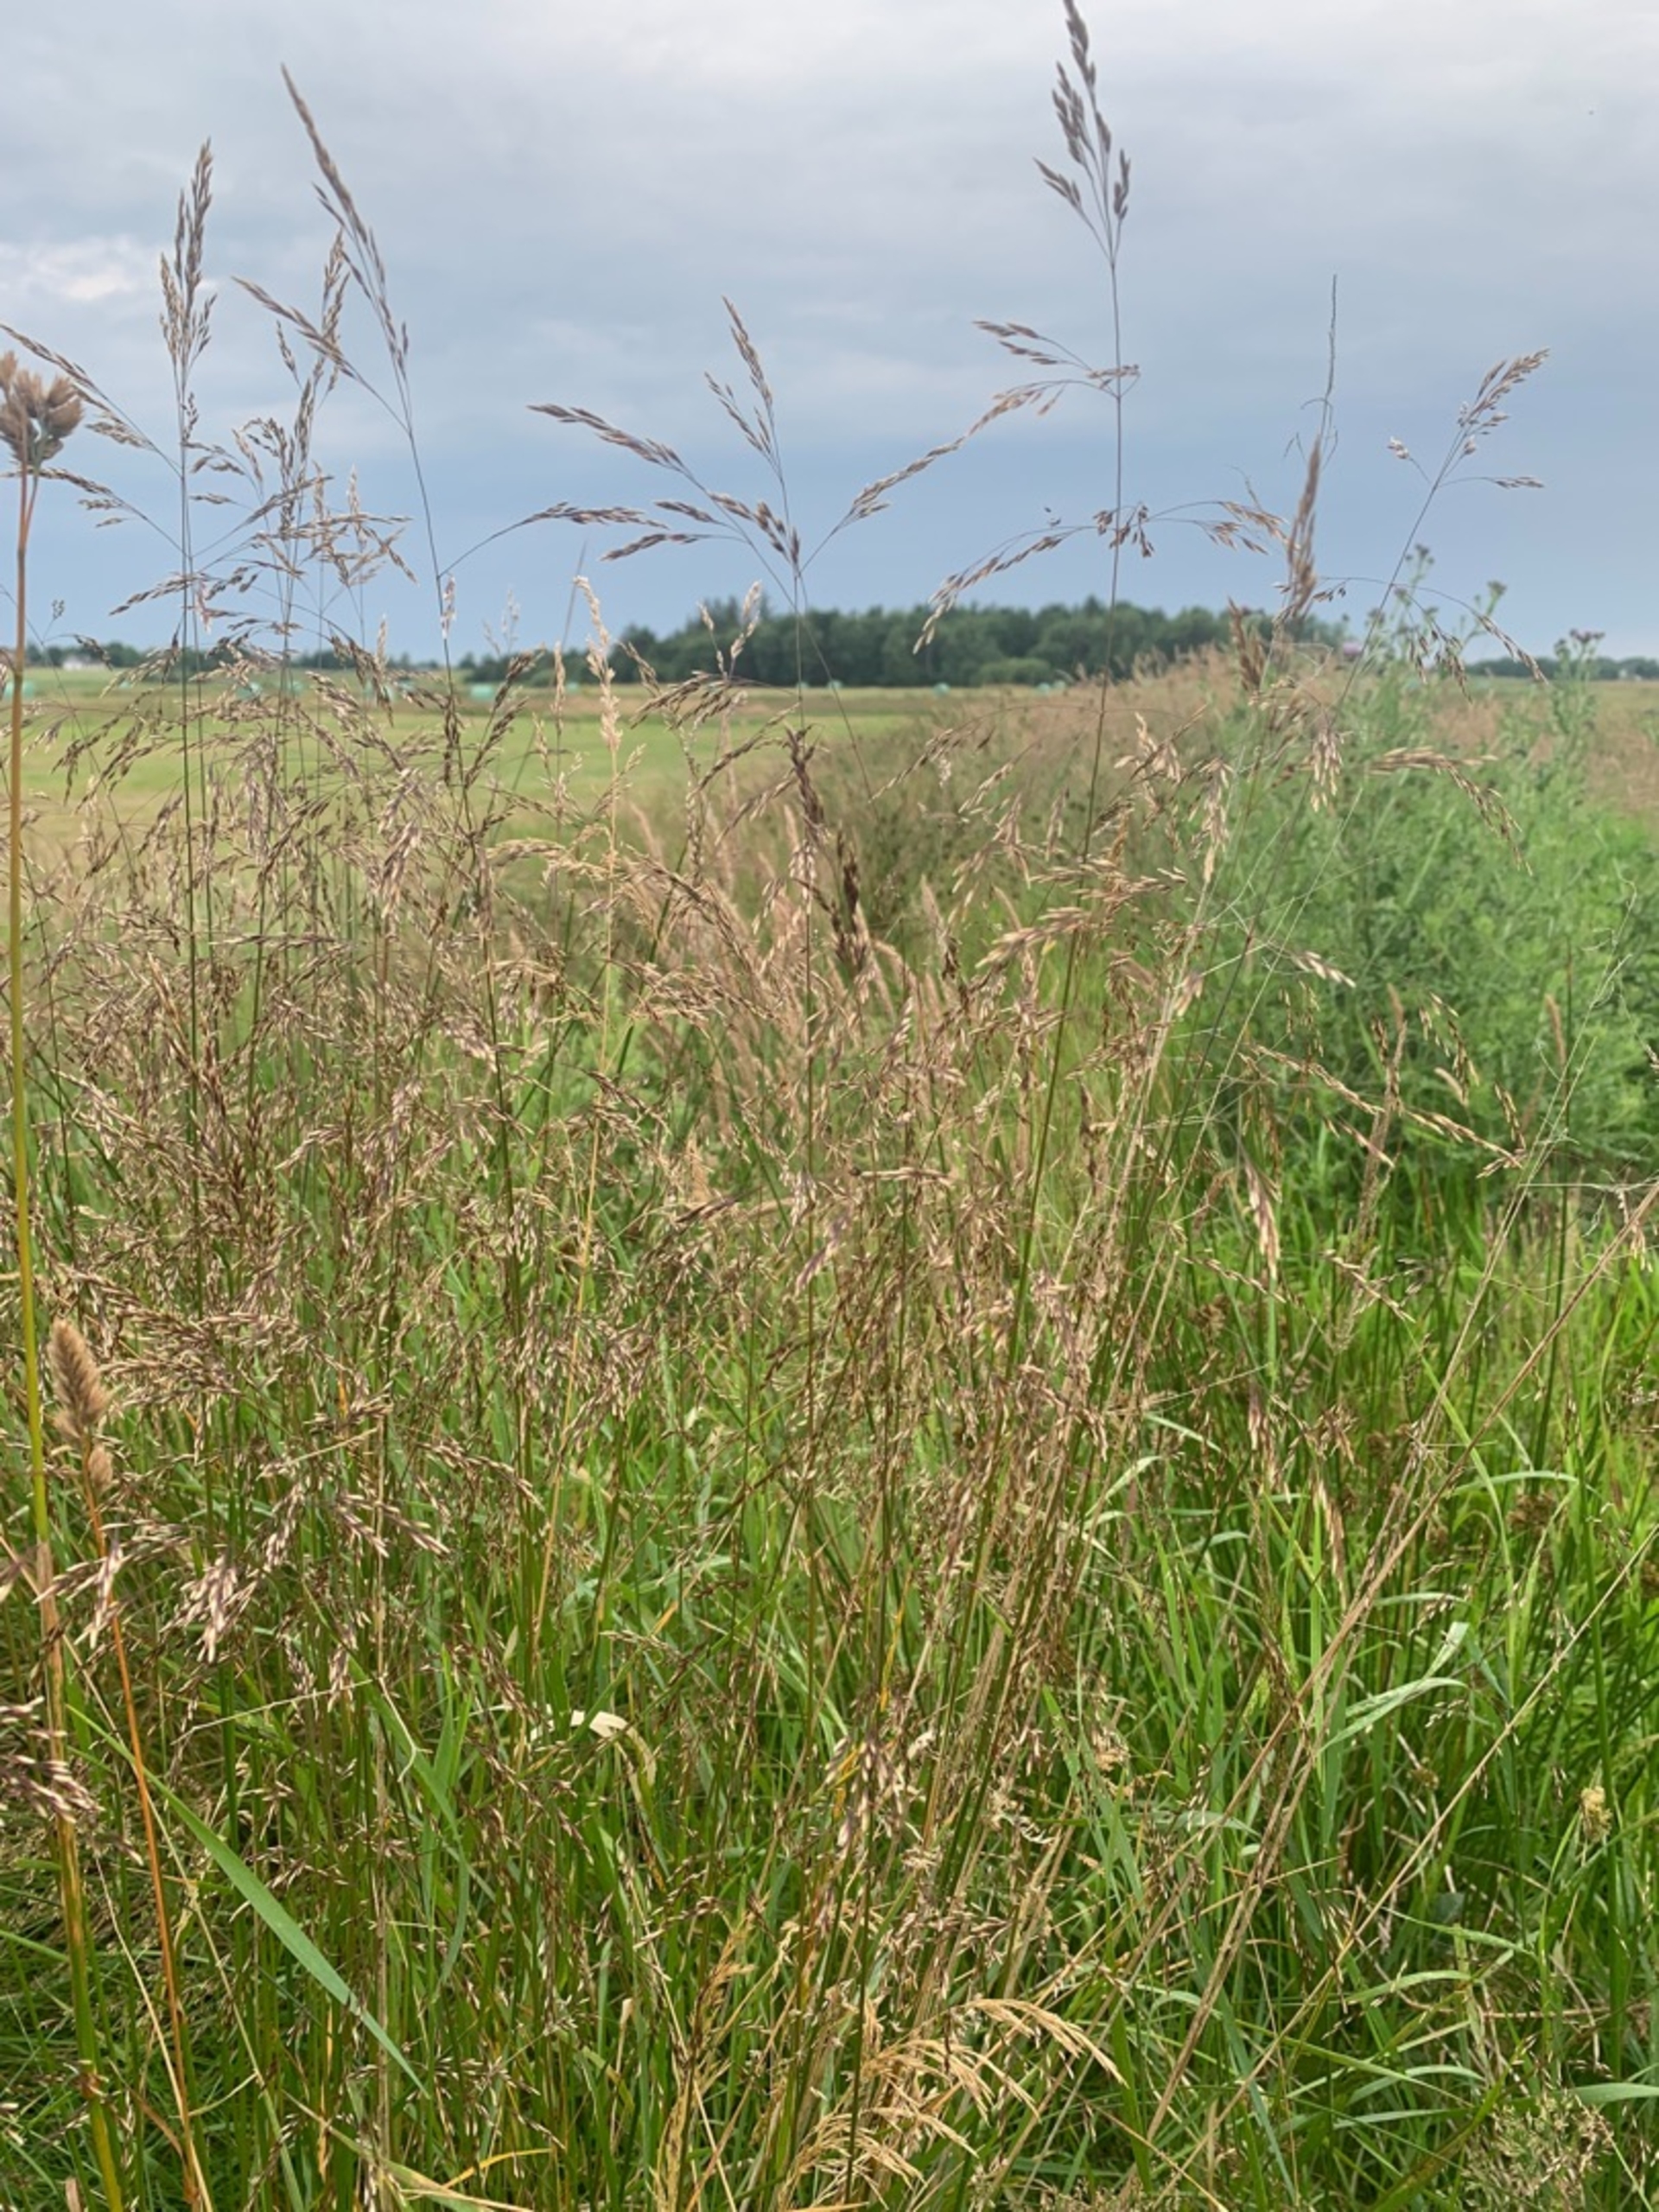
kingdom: Plantae
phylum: Tracheophyta
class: Liliopsida
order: Poales
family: Poaceae
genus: Avenella
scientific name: Avenella flexuosa
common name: Bølget bunke
